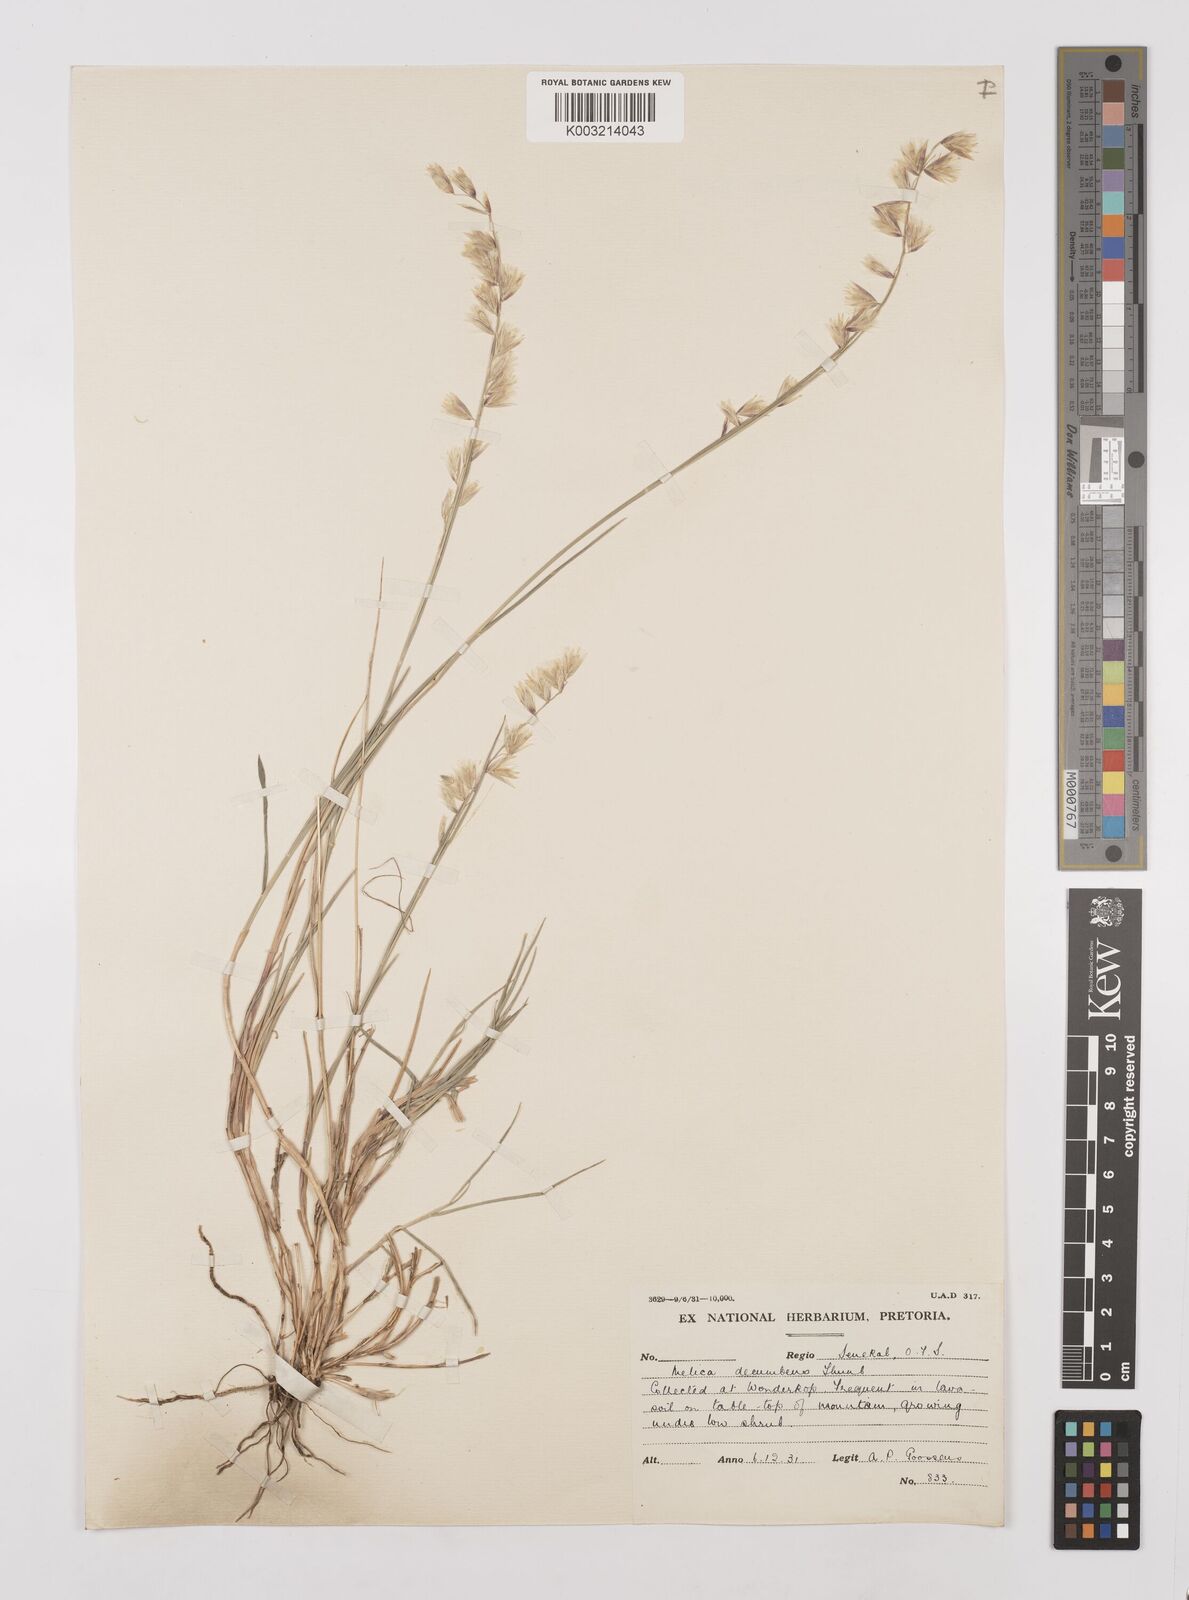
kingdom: Plantae
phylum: Tracheophyta
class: Liliopsida
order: Poales
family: Poaceae
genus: Melica
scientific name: Melica dendroides
